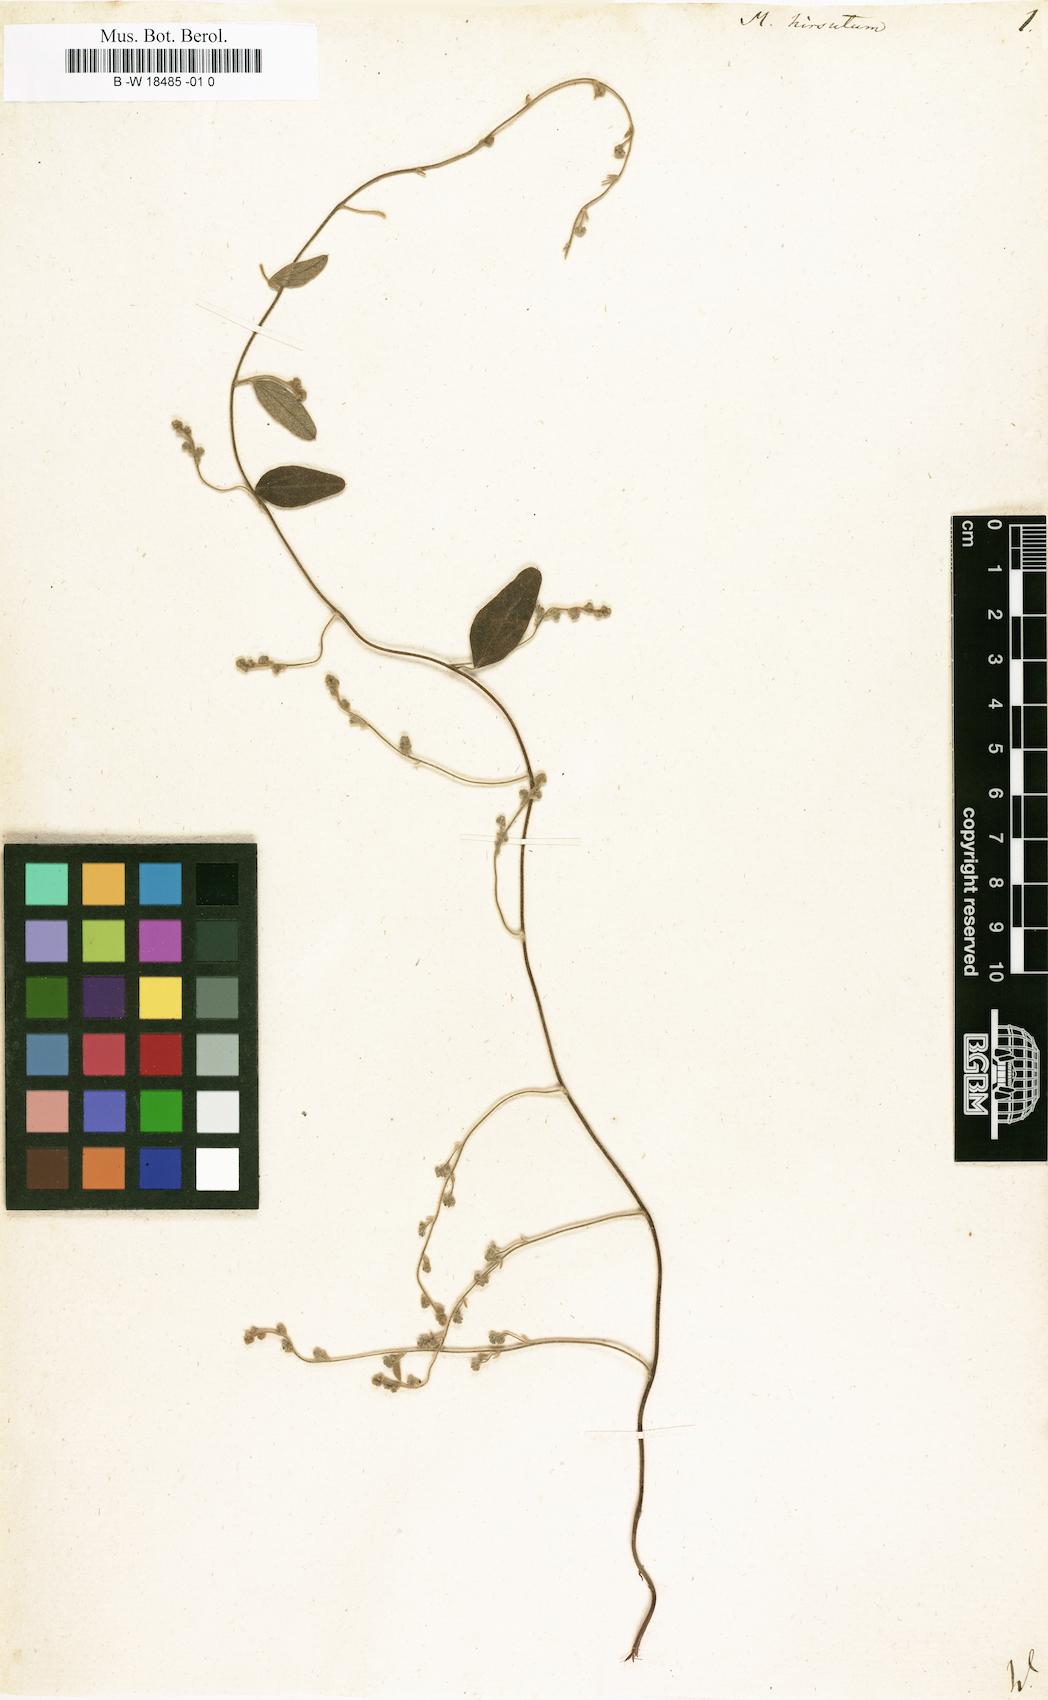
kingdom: Plantae
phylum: Tracheophyta
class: Magnoliopsida
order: Ranunculales
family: Menispermaceae
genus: Cocculus
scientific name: Cocculus hirsutus
